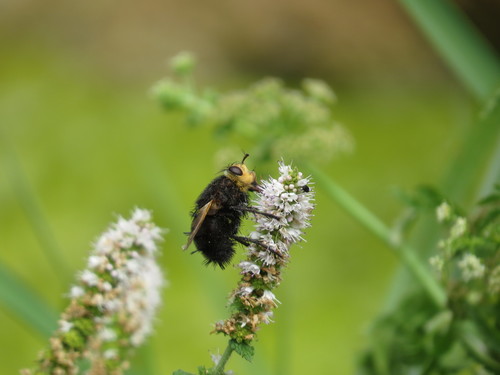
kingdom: Animalia
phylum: Arthropoda
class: Insecta
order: Diptera
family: Tachinidae
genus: Tachina
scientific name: Tachina grossa
